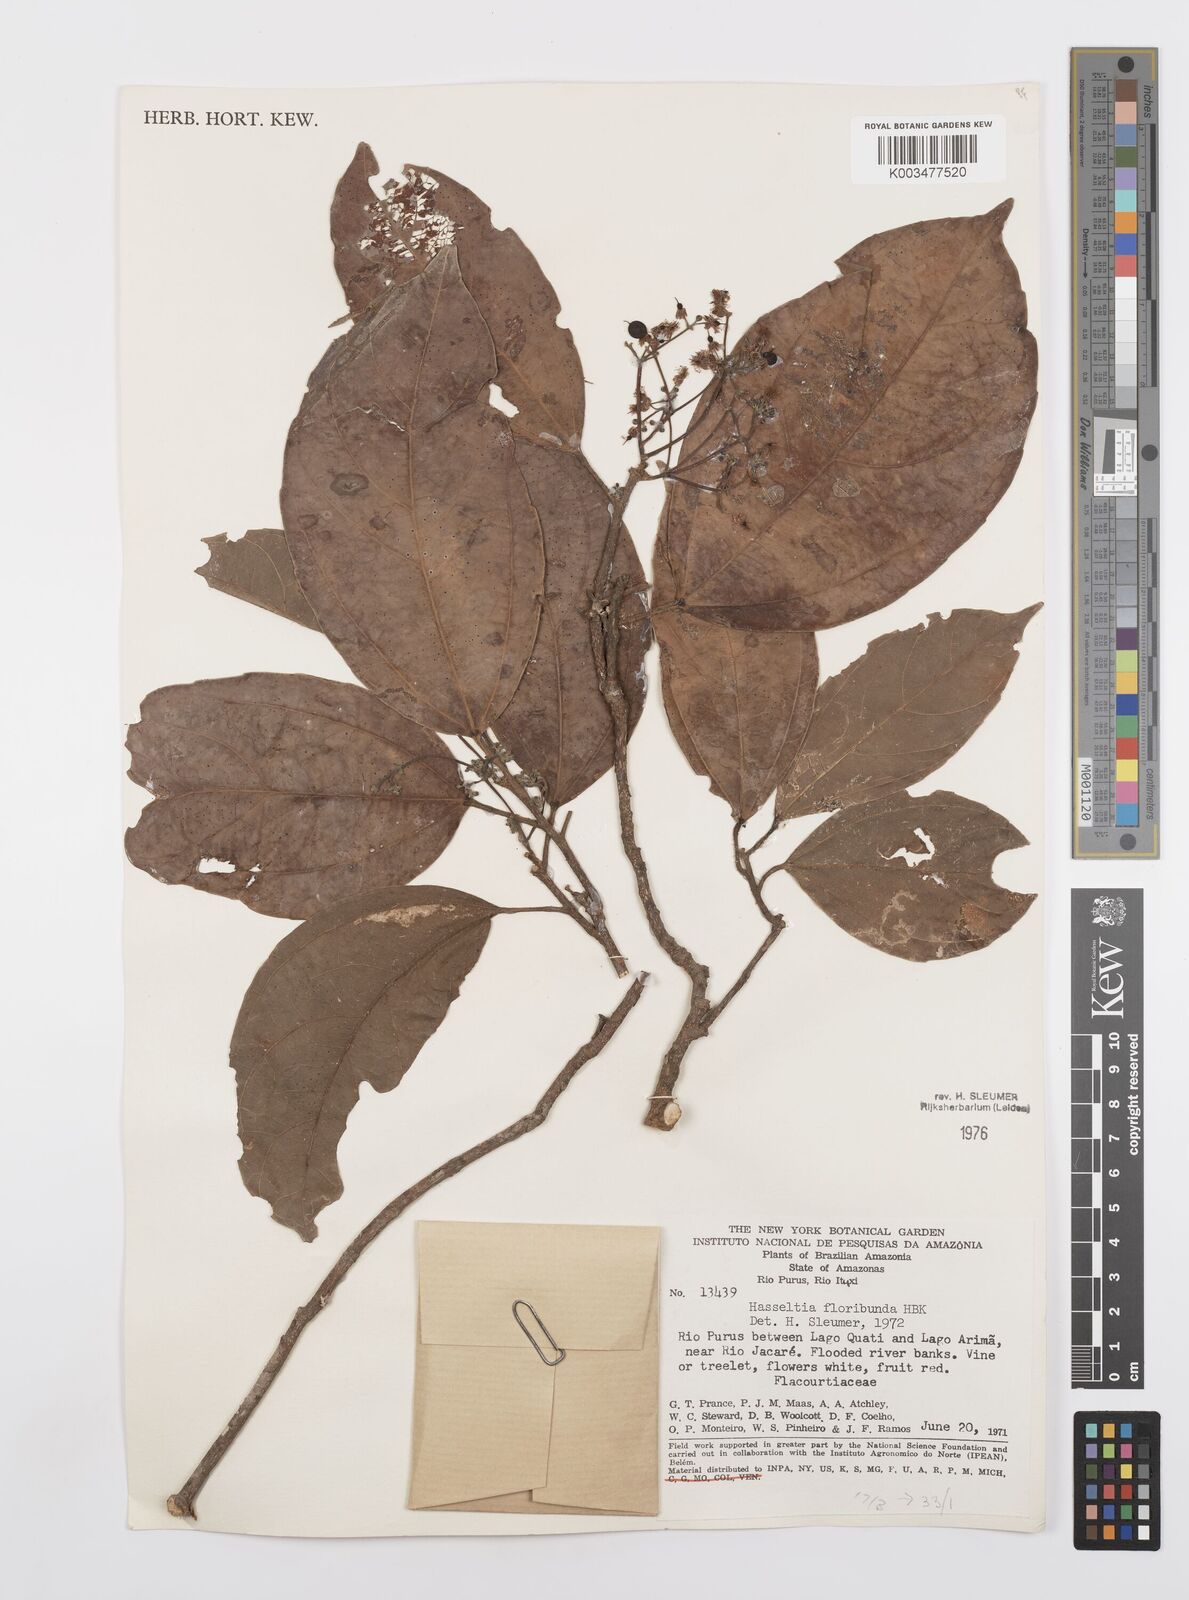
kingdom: Plantae
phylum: Tracheophyta
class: Magnoliopsida
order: Malpighiales
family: Salicaceae
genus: Hasseltia
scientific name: Hasseltia floribunda
